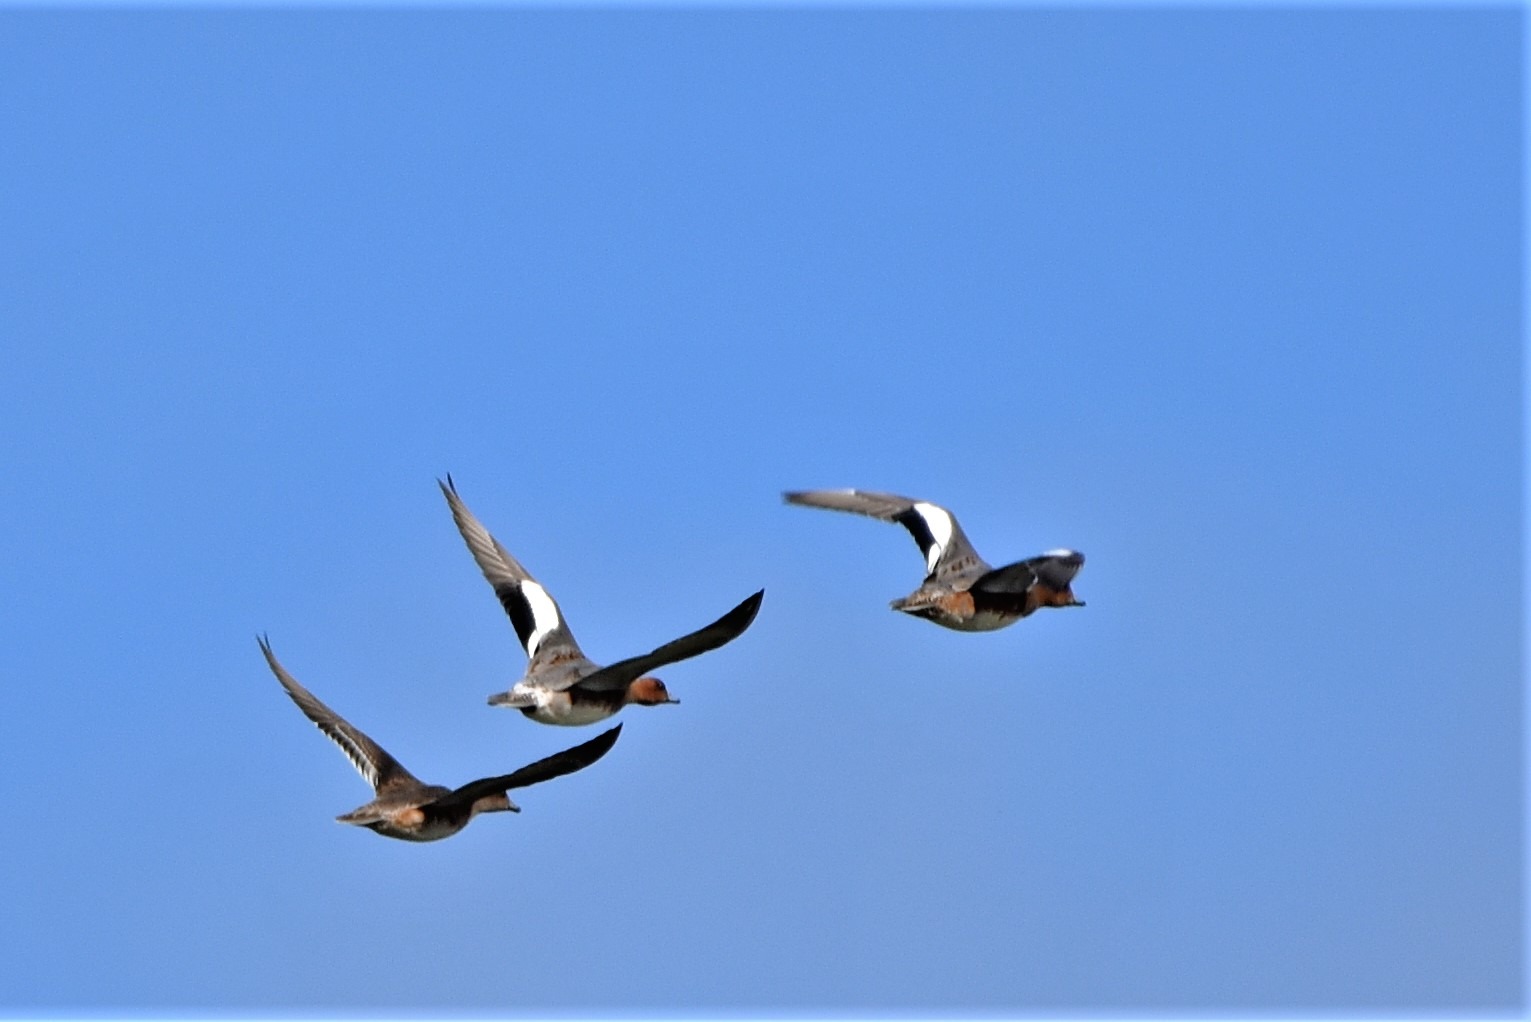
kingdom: Animalia
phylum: Chordata
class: Aves
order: Anseriformes
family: Anatidae
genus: Mareca
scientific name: Mareca penelope
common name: Pibeand
